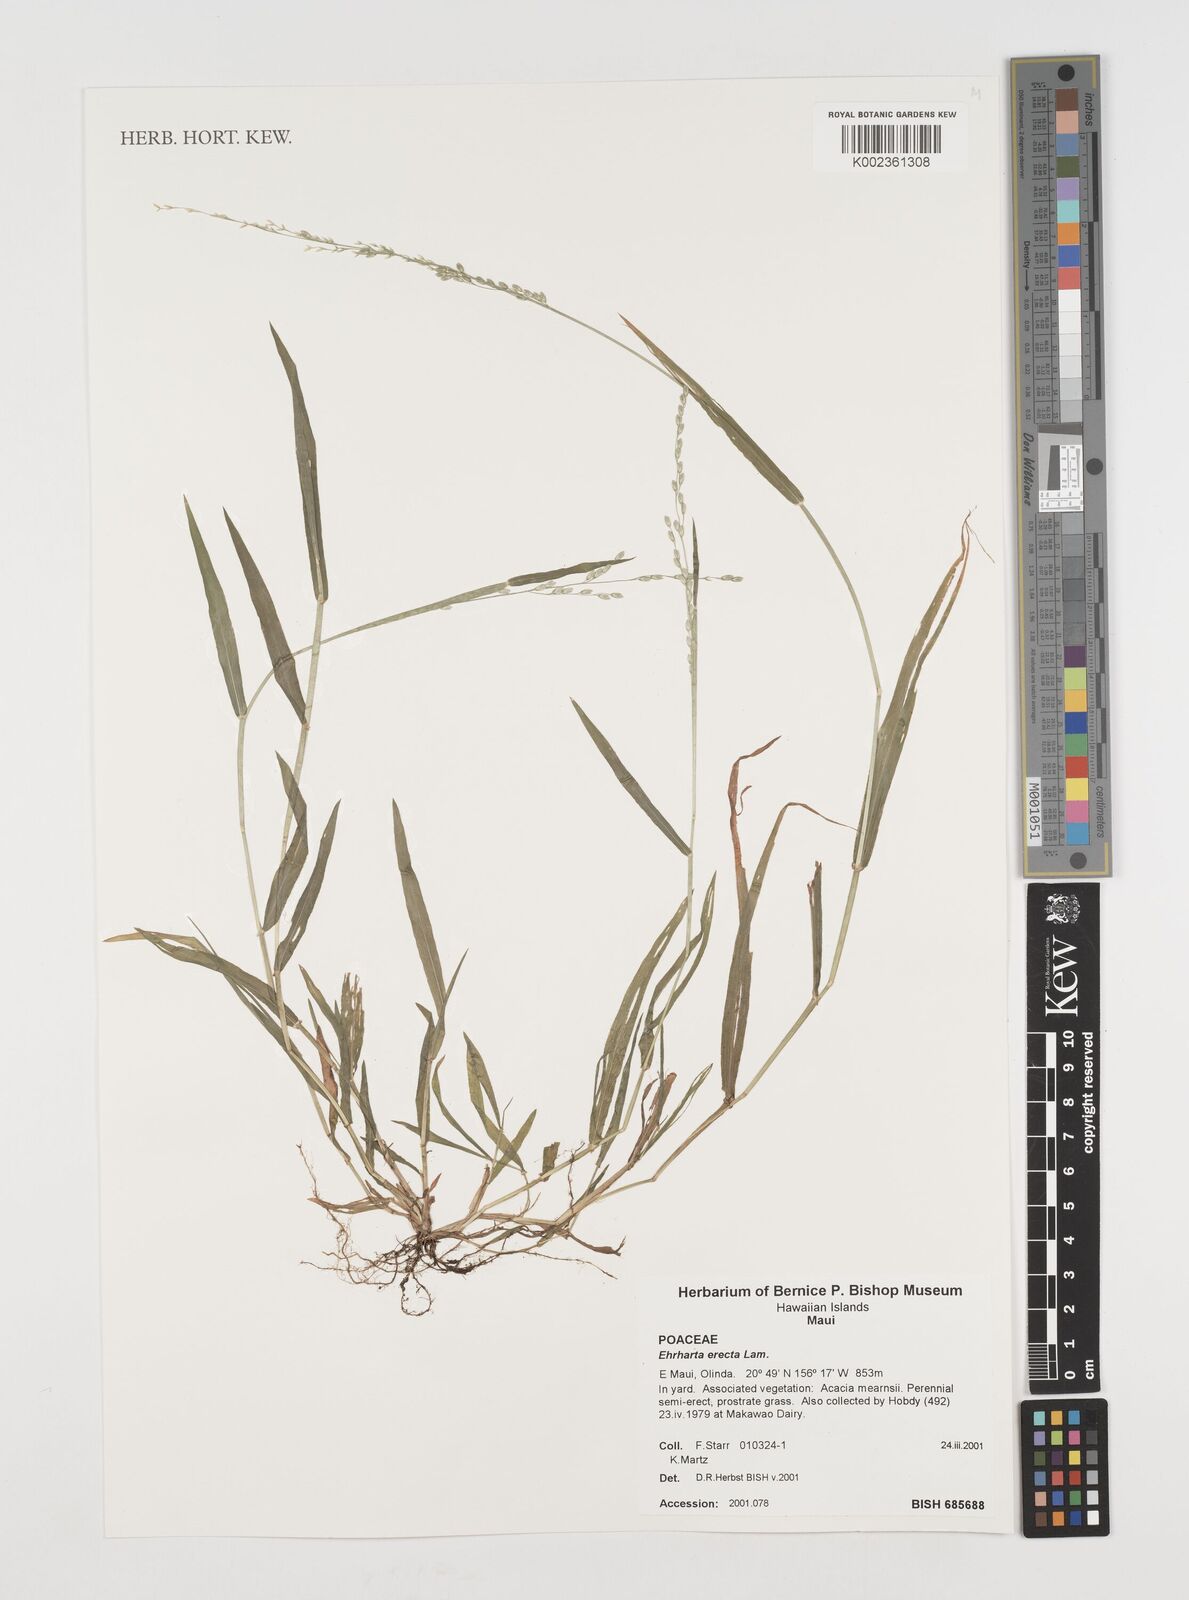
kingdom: Plantae
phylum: Tracheophyta
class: Liliopsida
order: Poales
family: Poaceae
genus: Ehrharta
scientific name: Ehrharta erecta
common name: Panic veldtgrass
